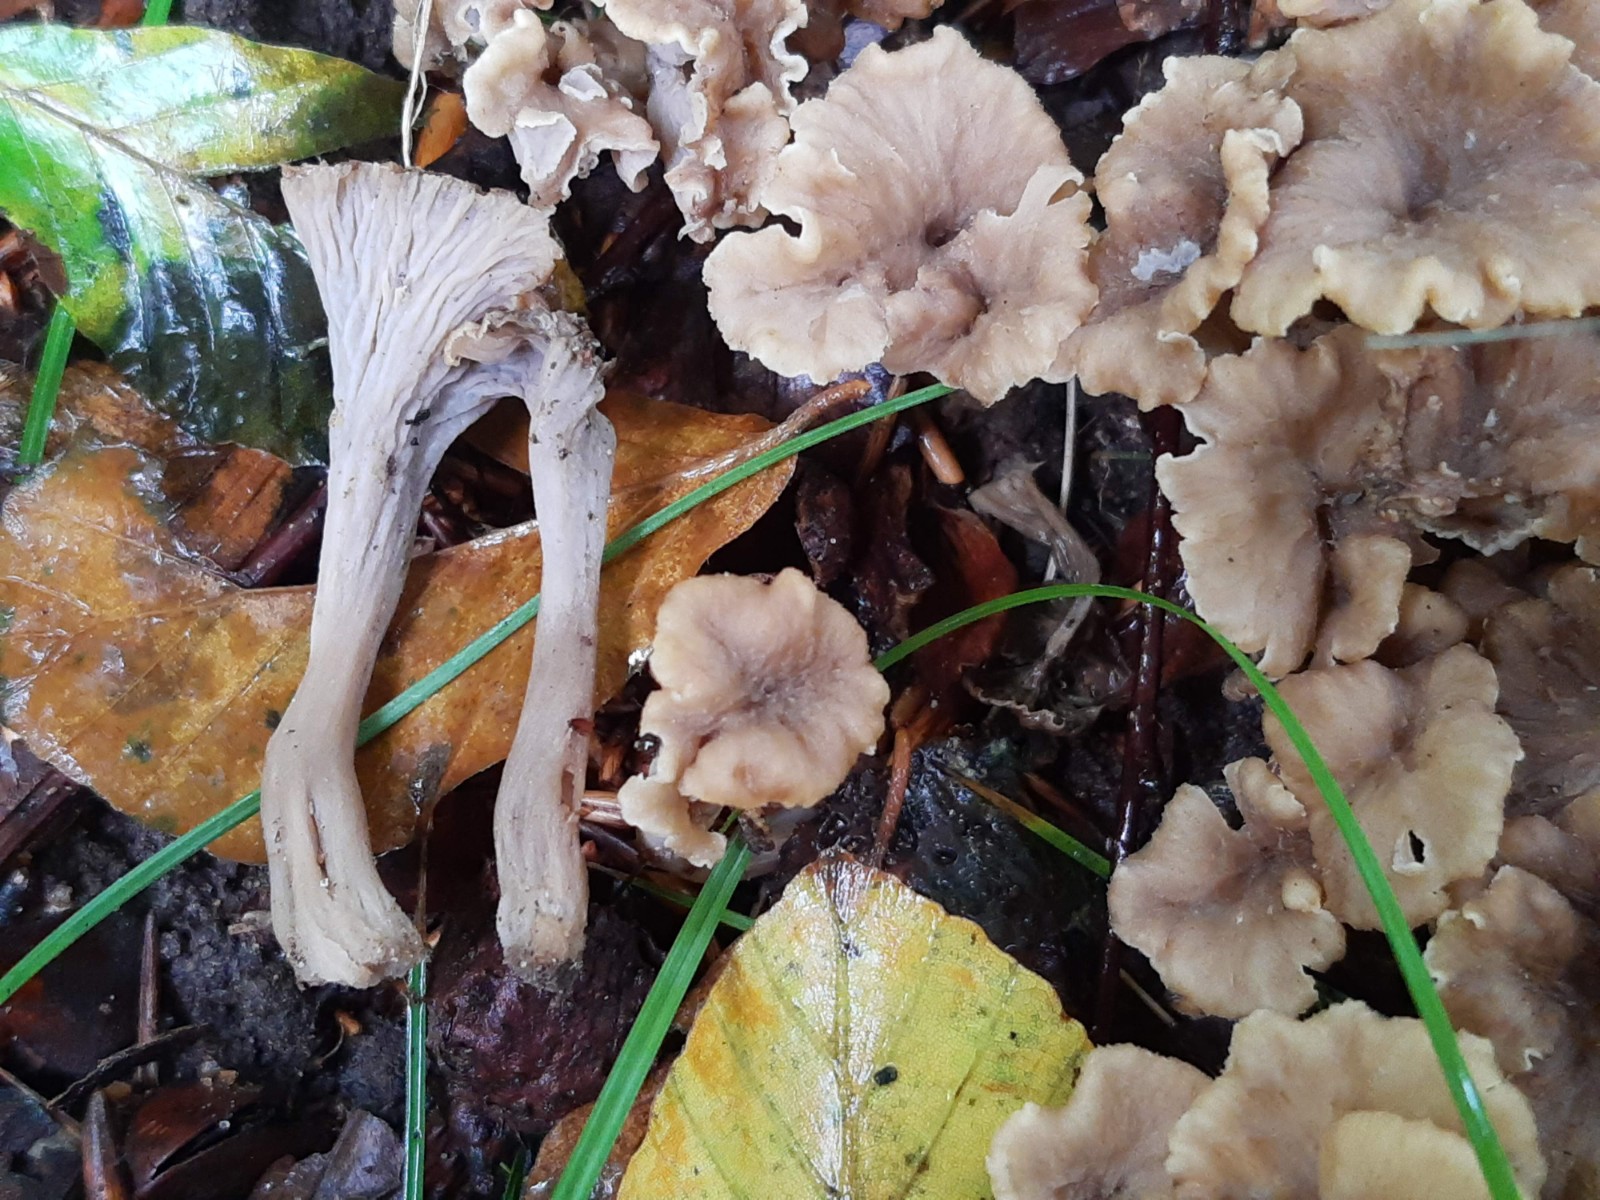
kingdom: Fungi
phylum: Basidiomycota
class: Agaricomycetes
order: Cantharellales
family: Hydnaceae
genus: Craterellus
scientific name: Craterellus undulatus
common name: liden kantarel
